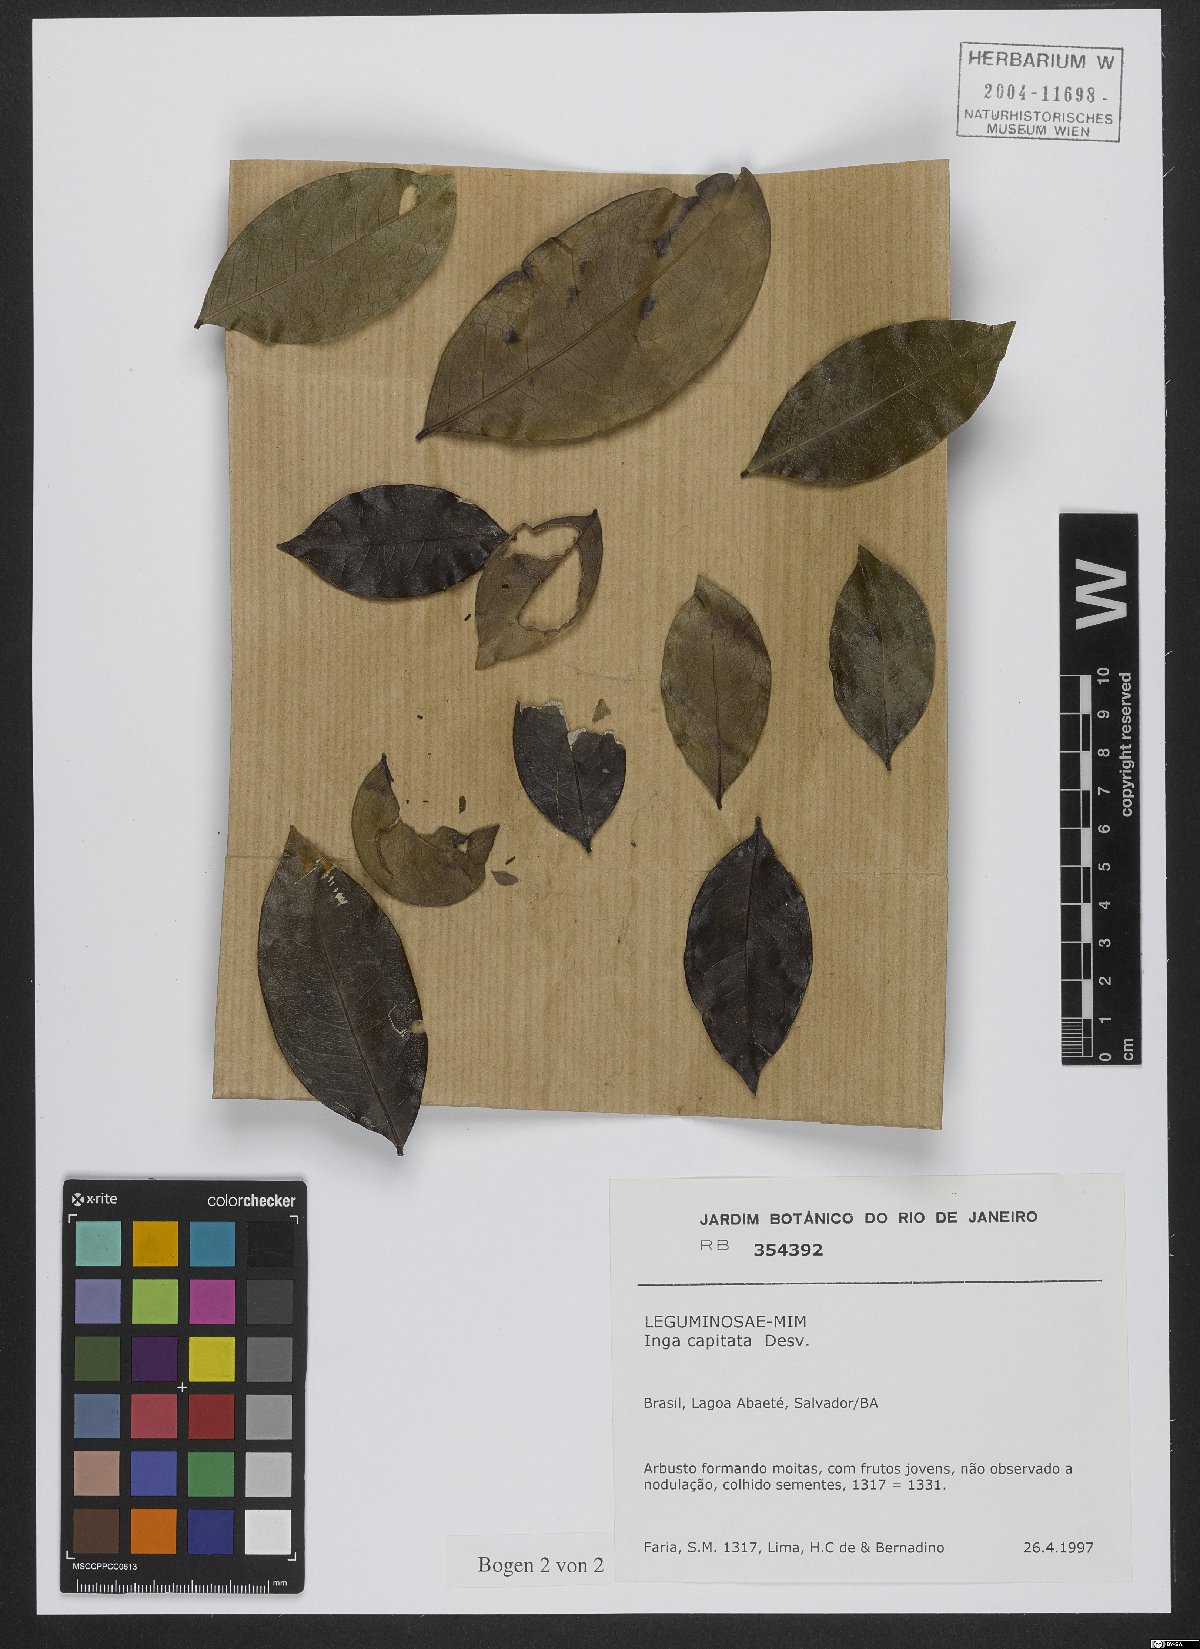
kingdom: Plantae
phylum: Tracheophyta
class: Magnoliopsida
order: Fabales
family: Fabaceae
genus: Inga
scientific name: Inga capitata
